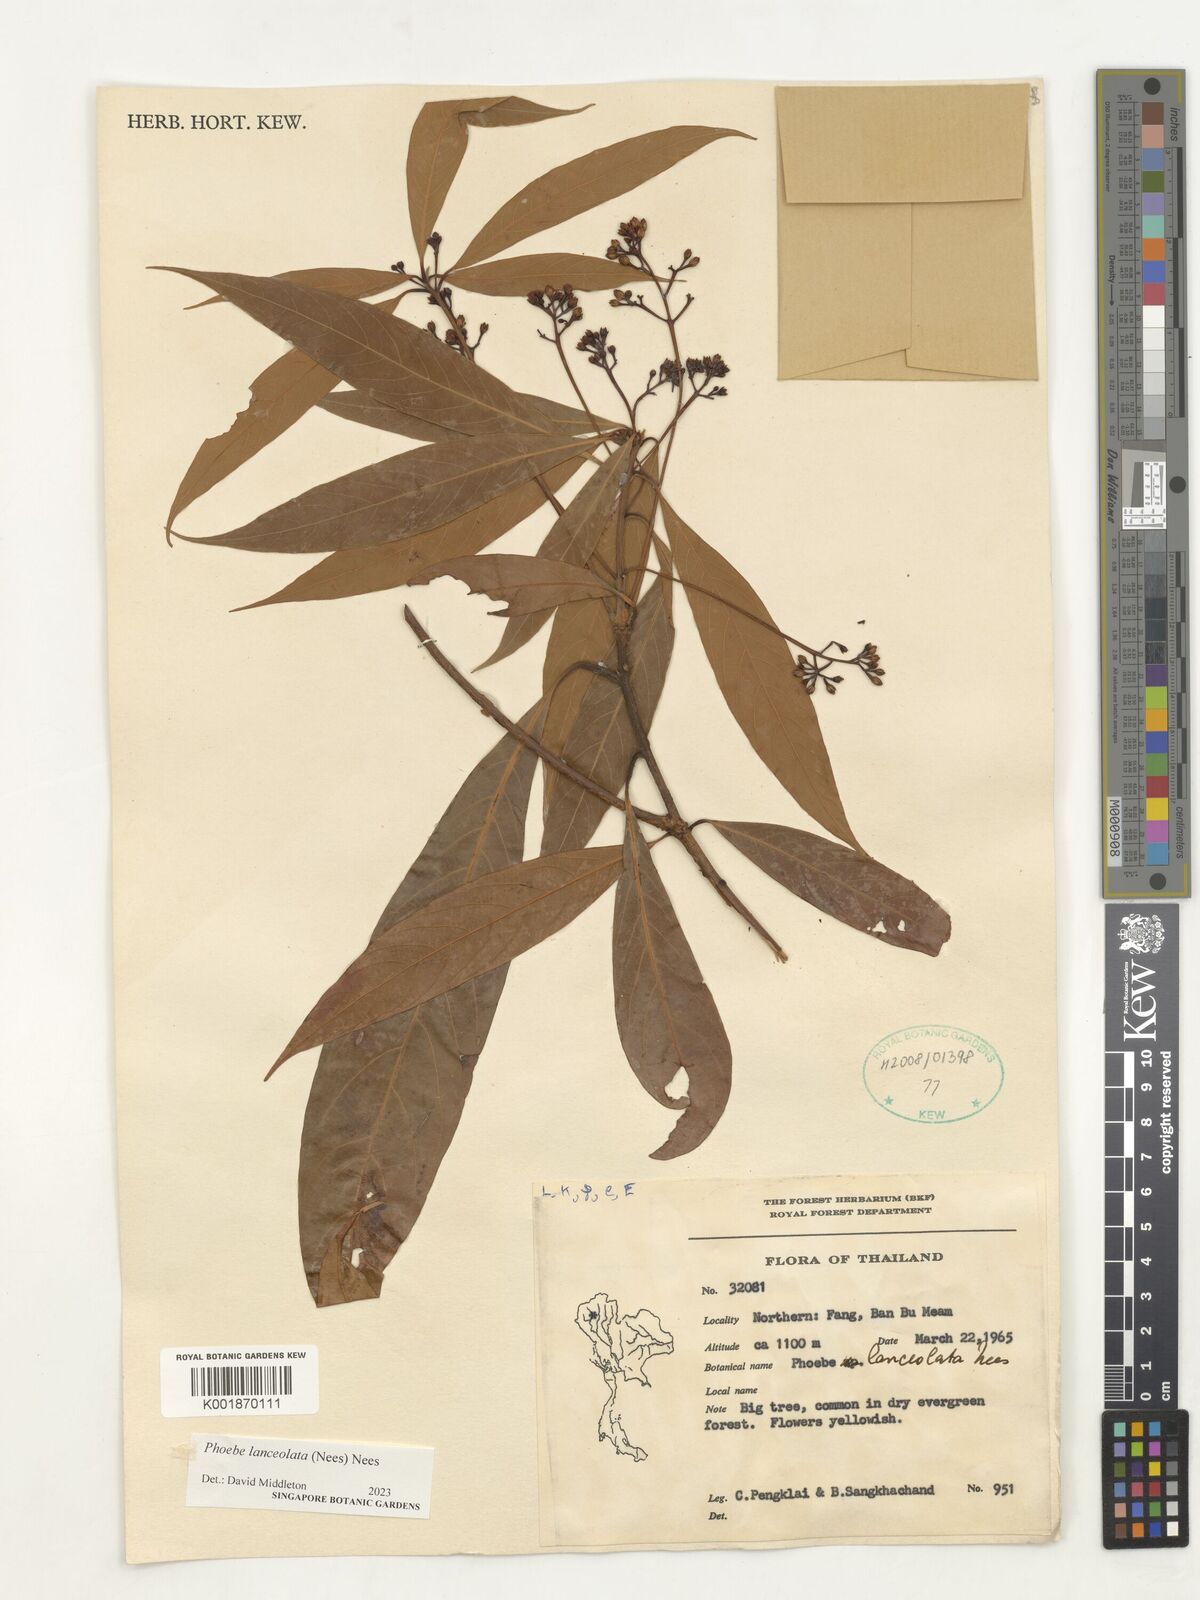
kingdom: Plantae
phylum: Tracheophyta
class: Magnoliopsida
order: Laurales
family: Lauraceae
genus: Phoebe
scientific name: Phoebe lanceolata
